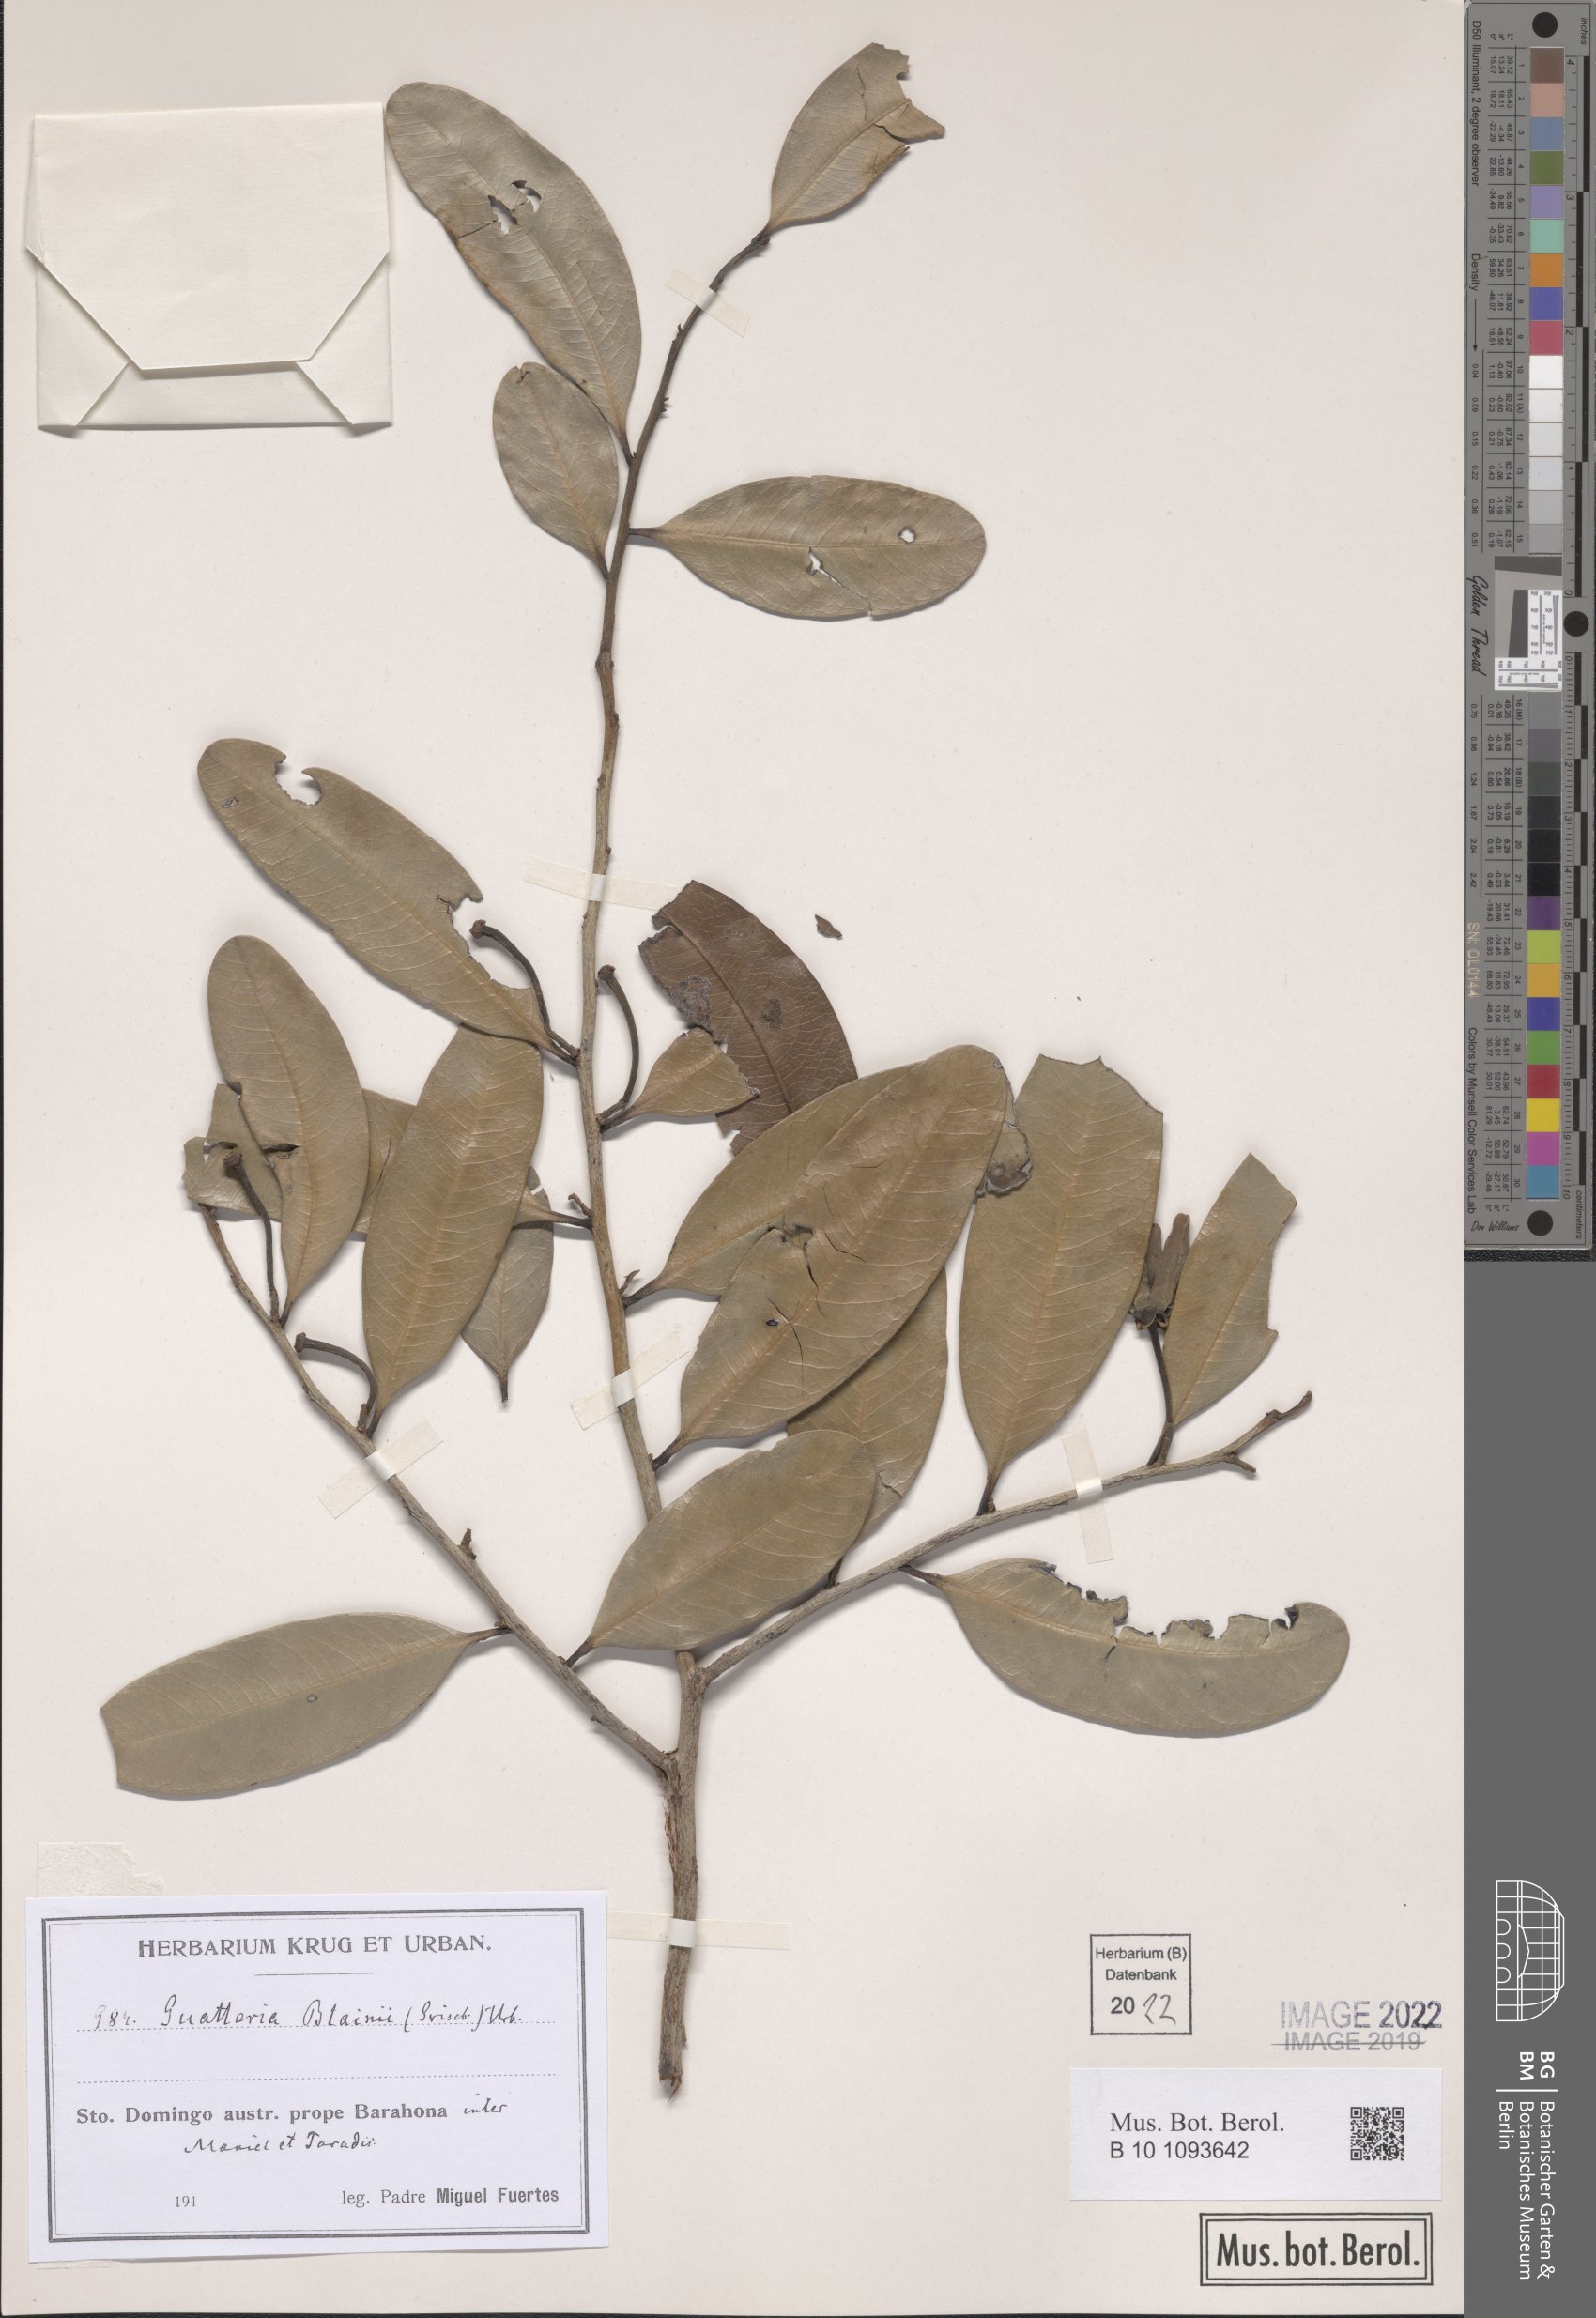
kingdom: Plantae
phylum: Tracheophyta
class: Magnoliopsida
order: Magnoliales
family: Annonaceae
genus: Guatteria
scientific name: Guatteria blainii
